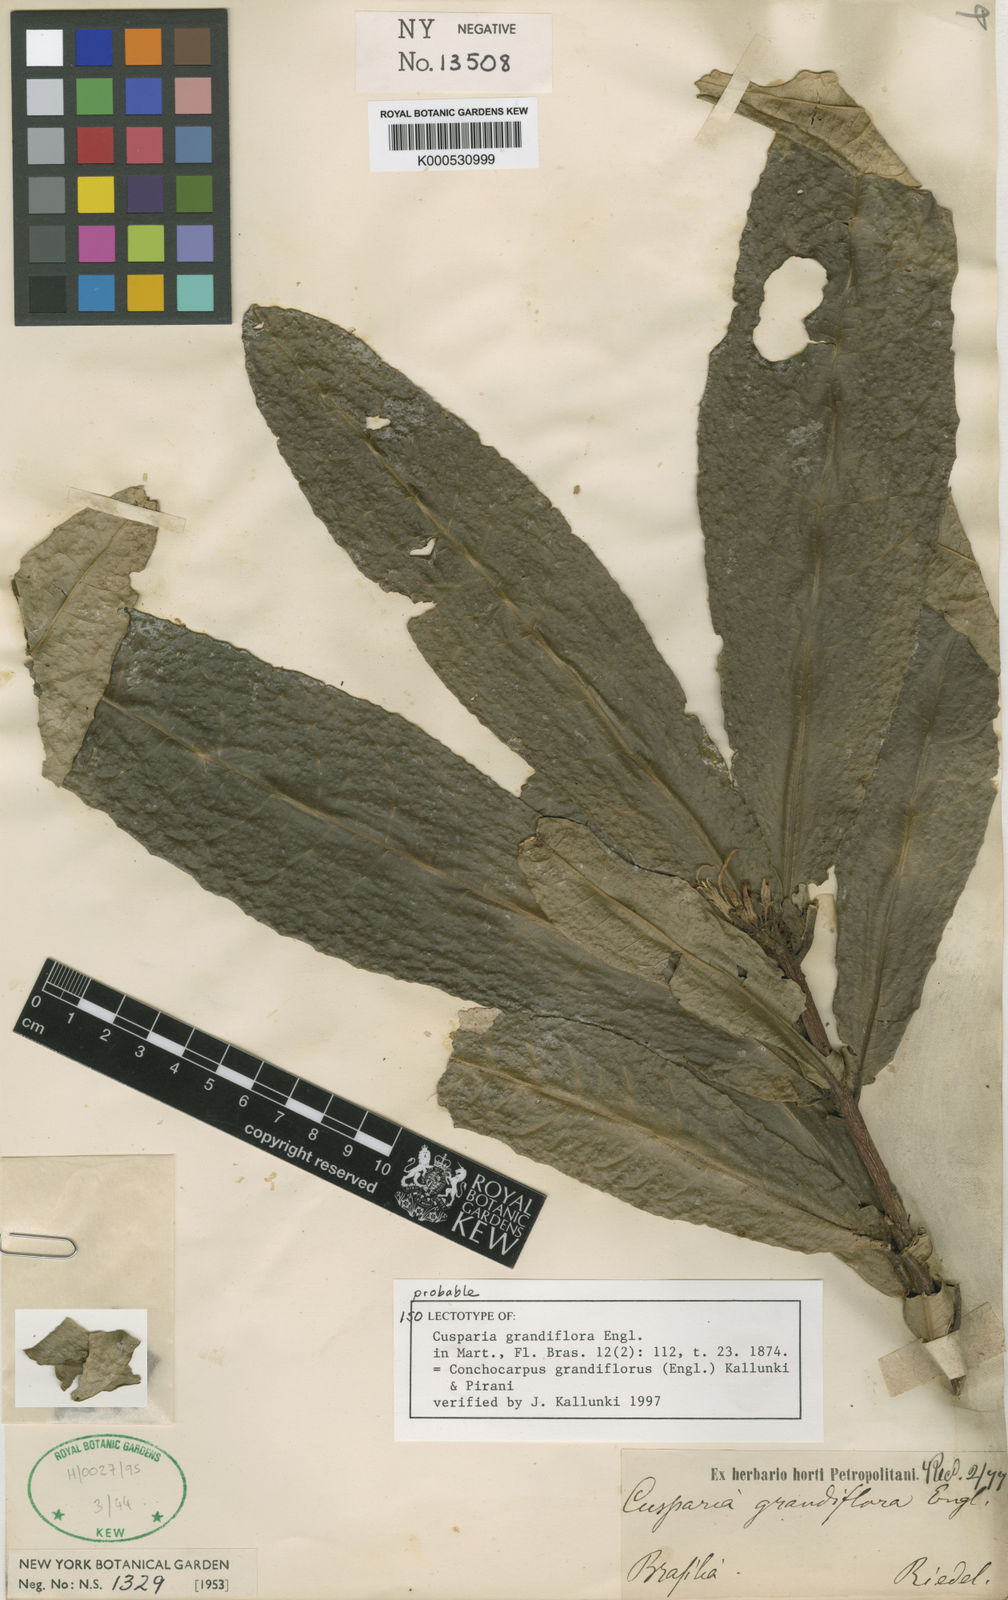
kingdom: Plantae
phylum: Tracheophyta
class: Magnoliopsida
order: Sapindales
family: Rutaceae
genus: Conchocarpus
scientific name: Conchocarpus grandiflorus
